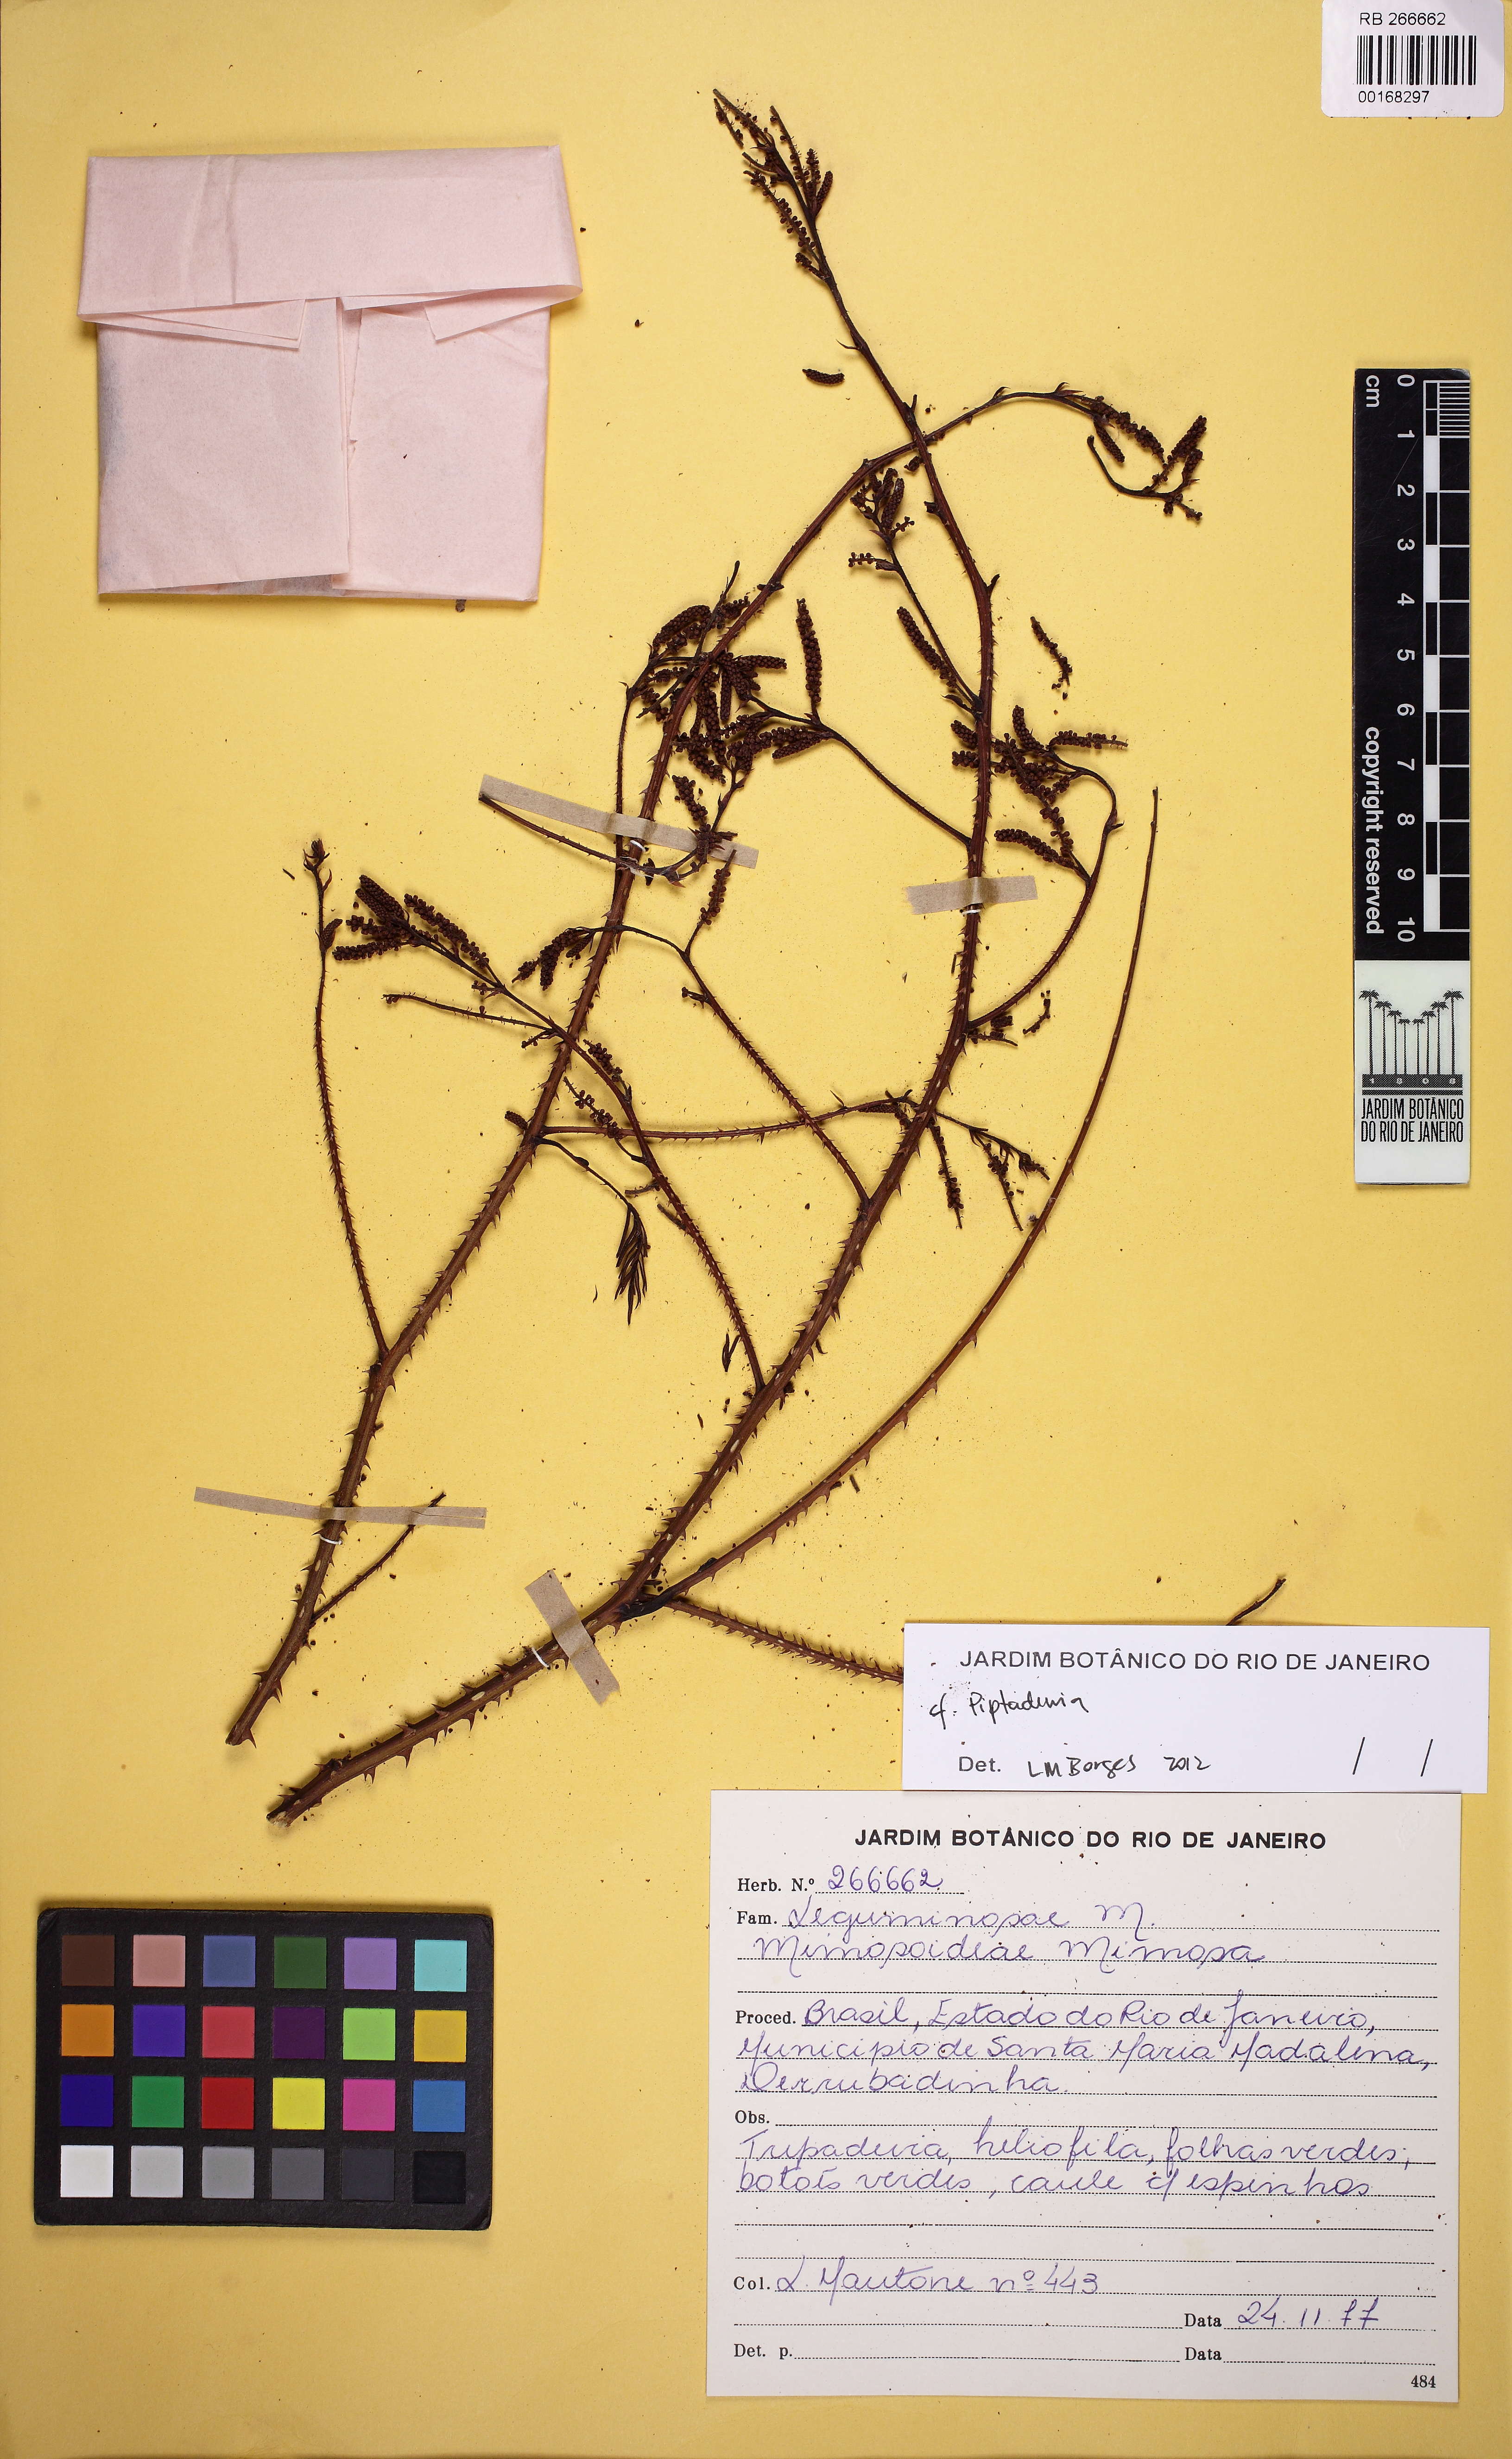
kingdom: Plantae
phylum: Tracheophyta
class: Magnoliopsida
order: Fabales
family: Fabaceae
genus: Piptadenia
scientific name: Piptadenia micracantha
